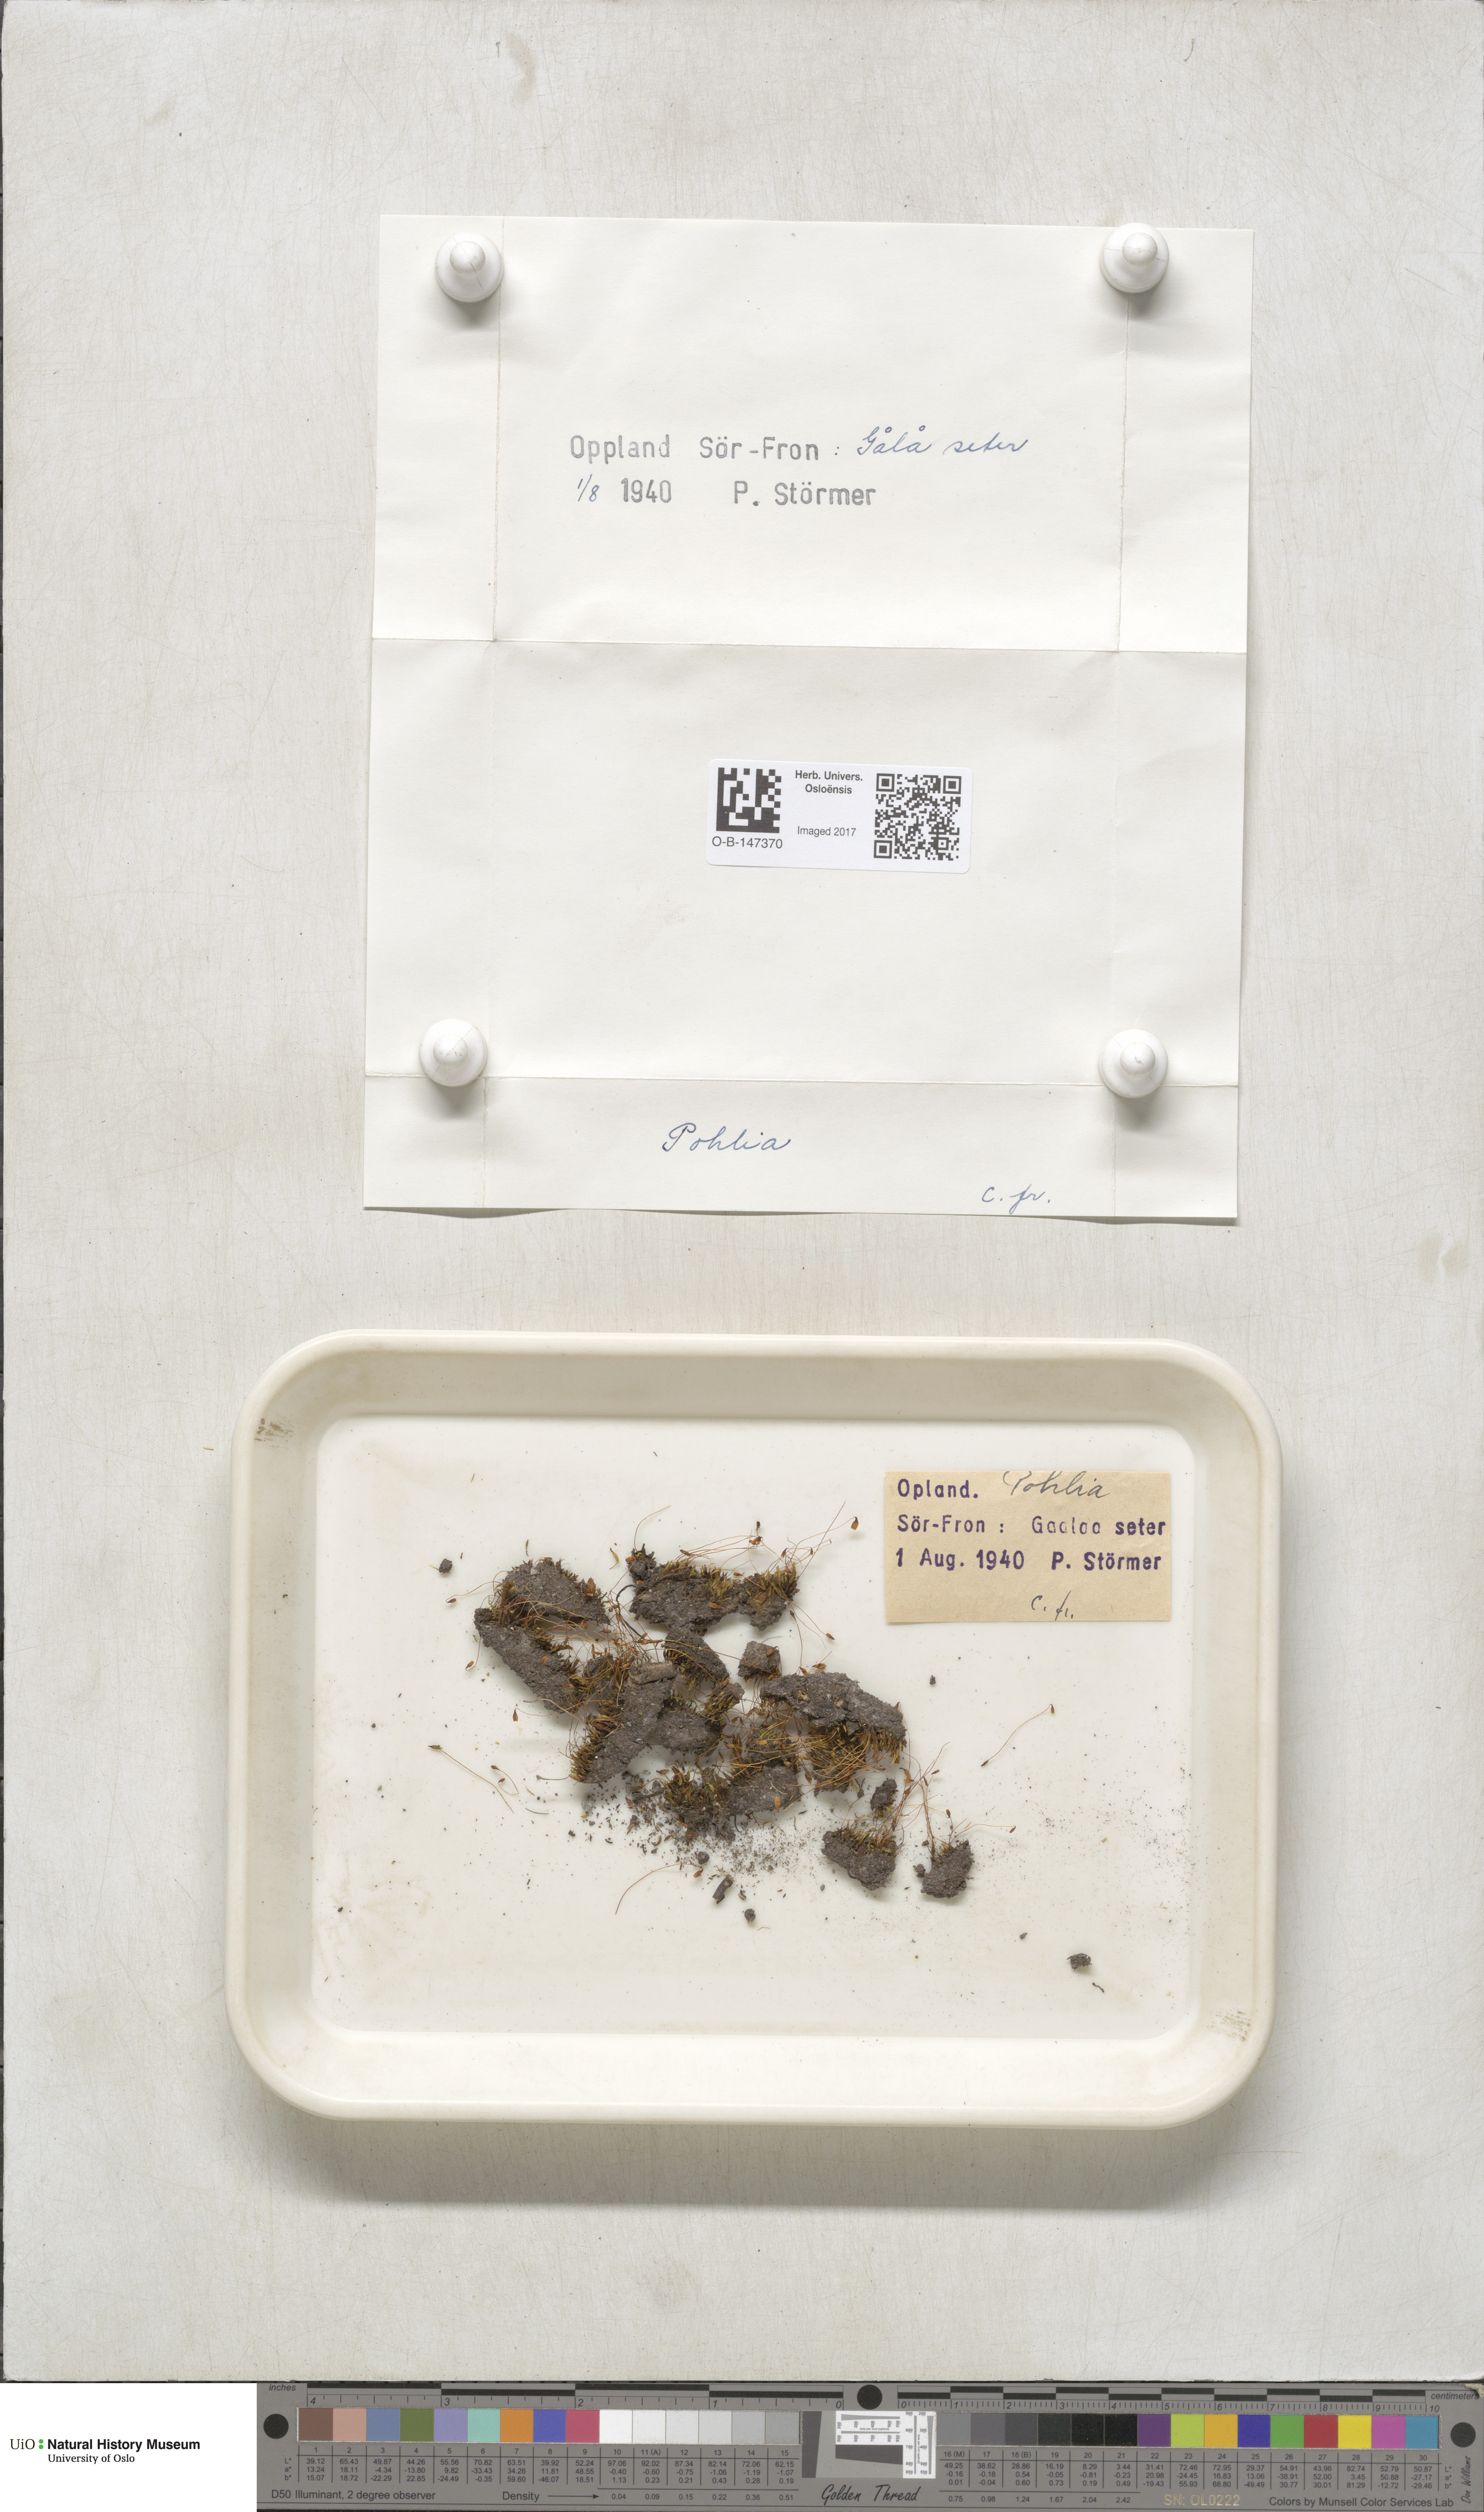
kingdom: Plantae
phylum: Bryophyta
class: Bryopsida
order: Bryales
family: Mniaceae
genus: Pohlia
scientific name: Pohlia
